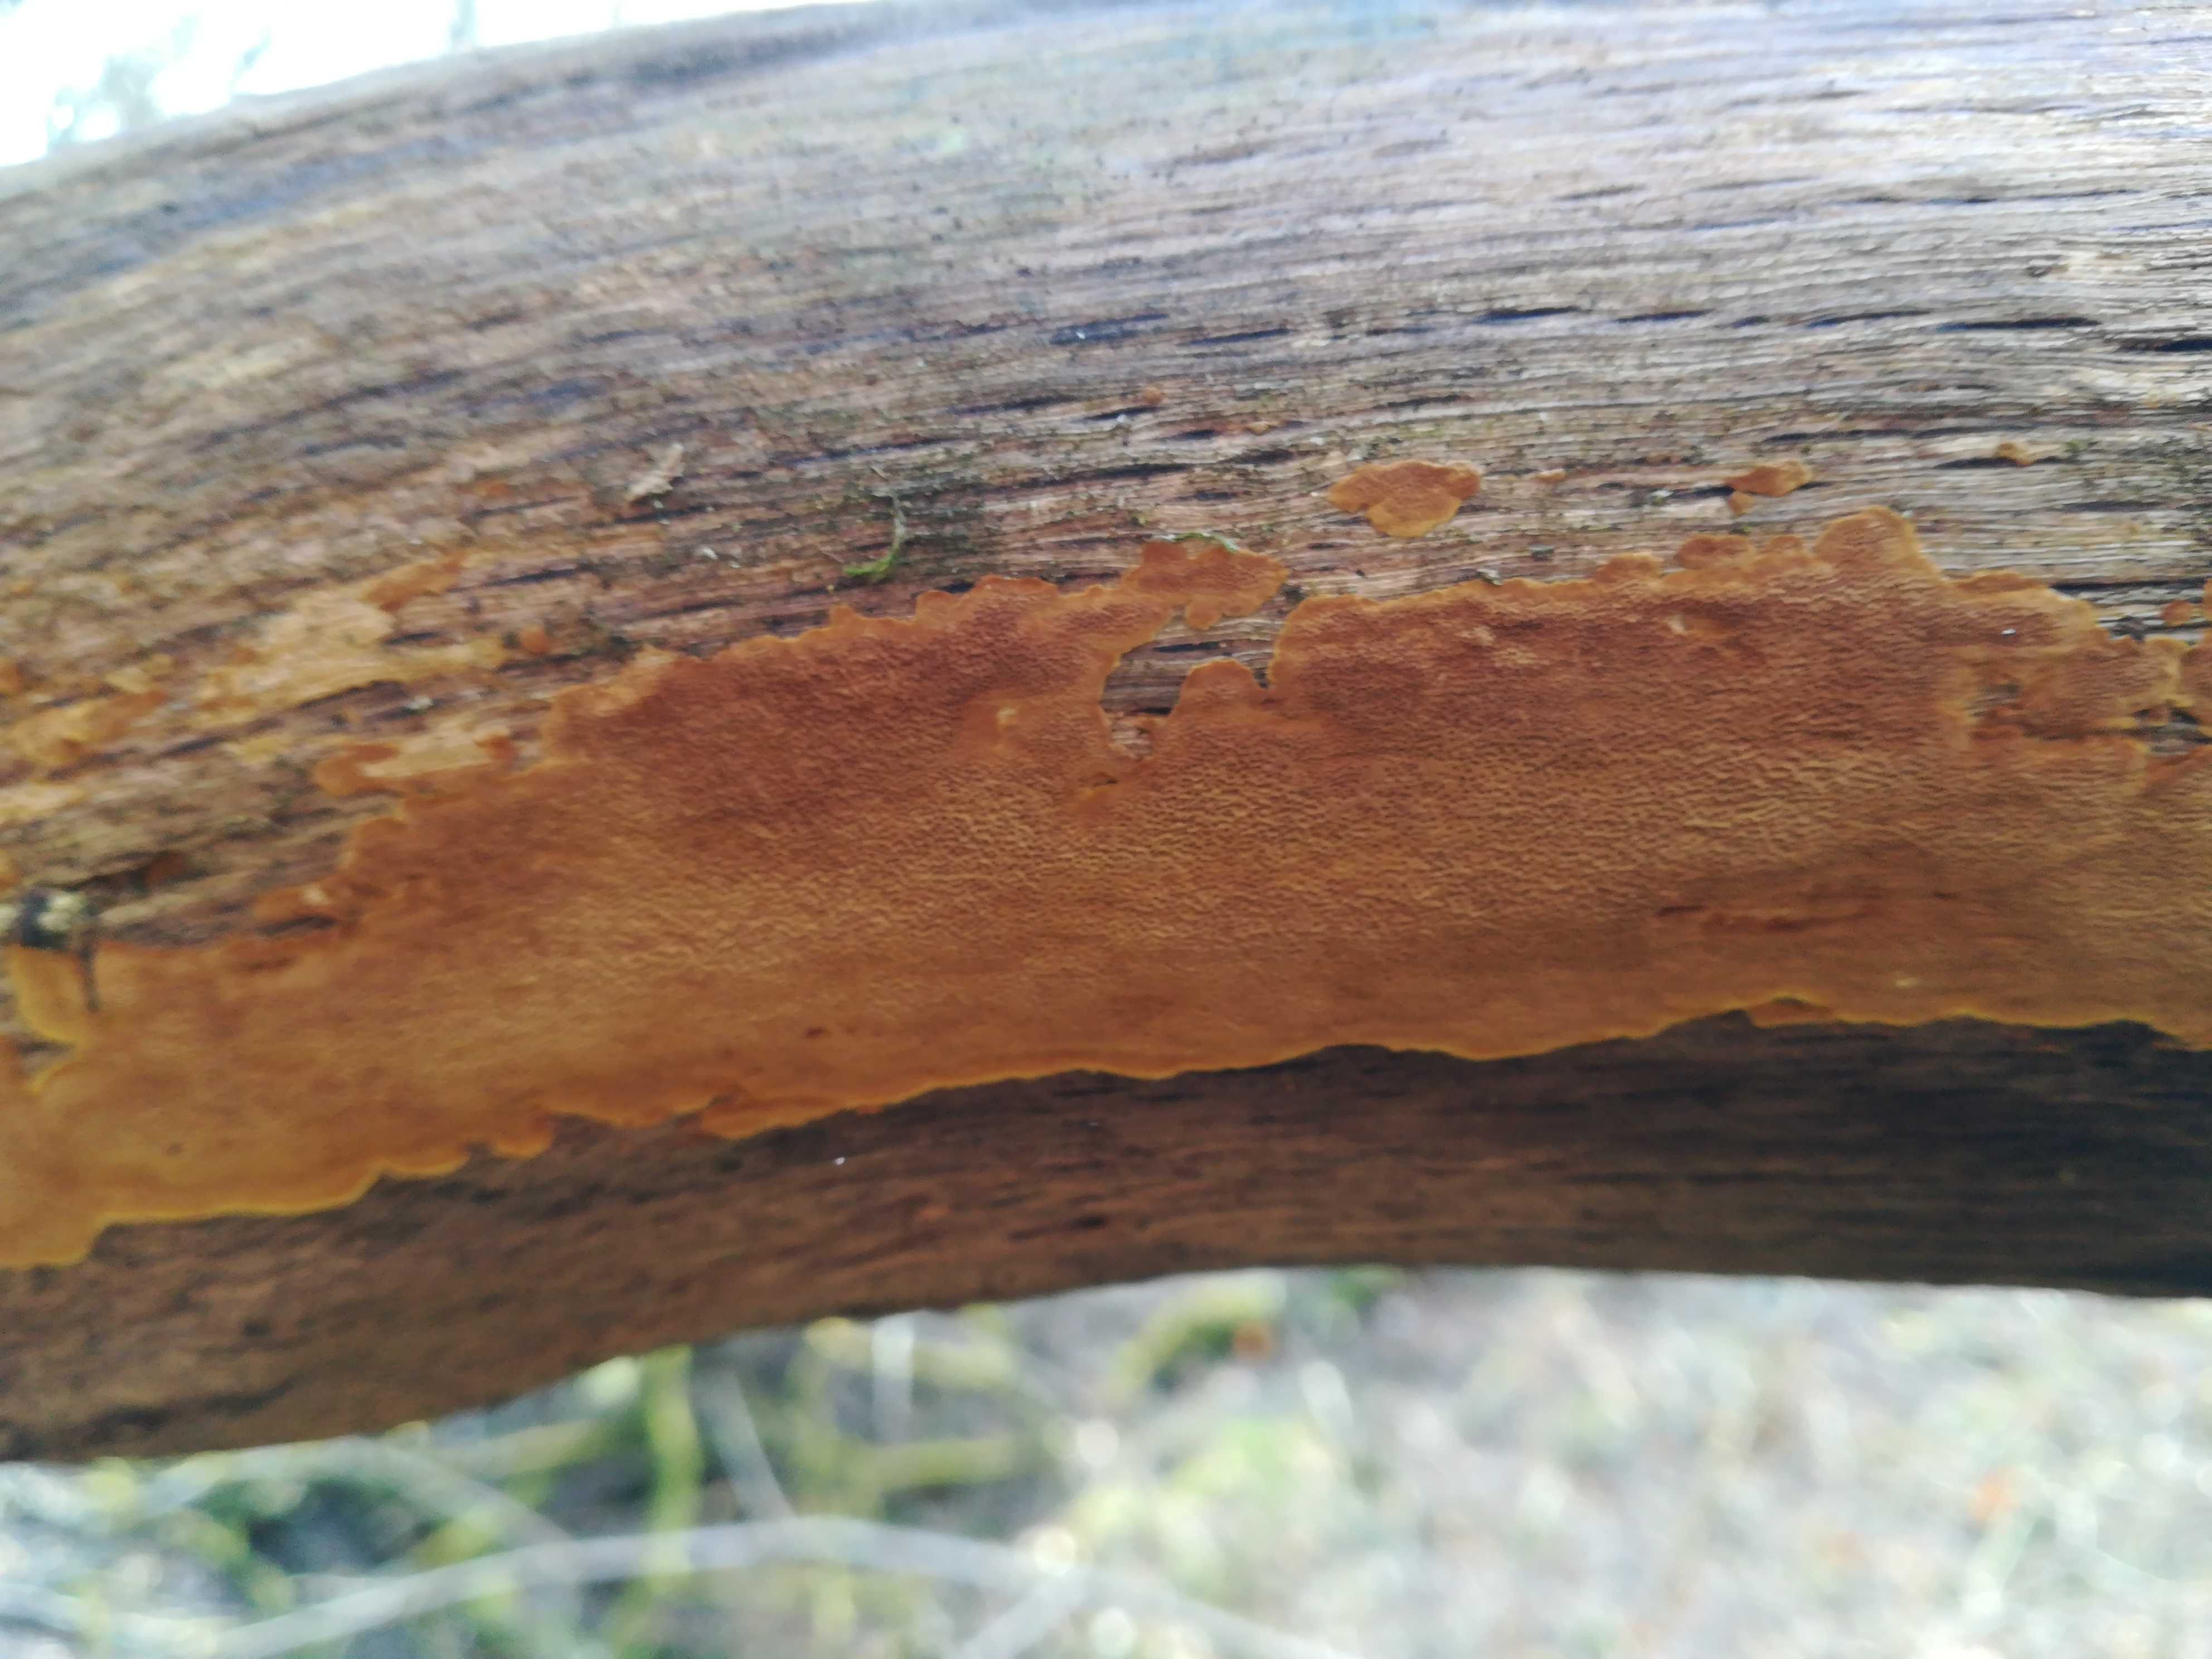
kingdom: Fungi
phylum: Basidiomycota
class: Agaricomycetes
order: Hymenochaetales
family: Hymenochaetaceae
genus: Fuscoporia
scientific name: Fuscoporia ferrea
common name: skorpe-ildporesvamp
